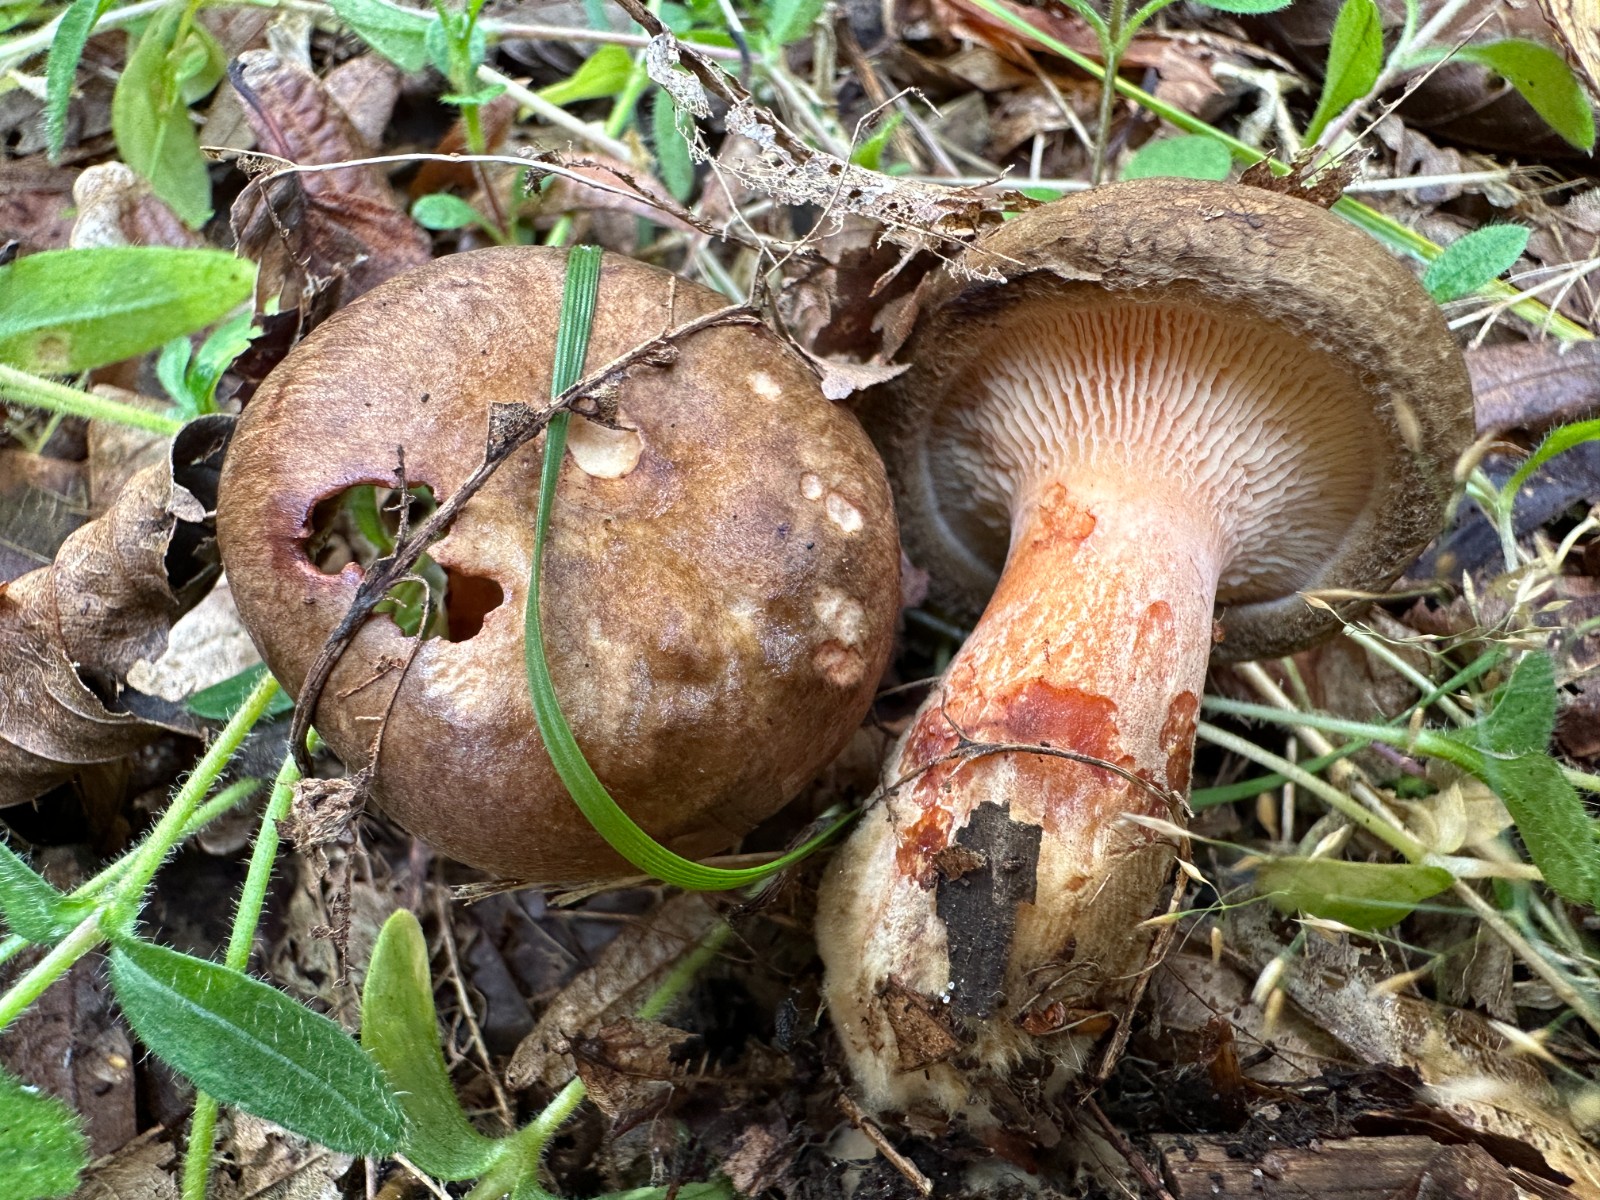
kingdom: Fungi
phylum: Basidiomycota
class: Agaricomycetes
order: Boletales
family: Paxillaceae
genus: Paxillus
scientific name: Paxillus obscurisporus
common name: mahognisporet netbladhat
